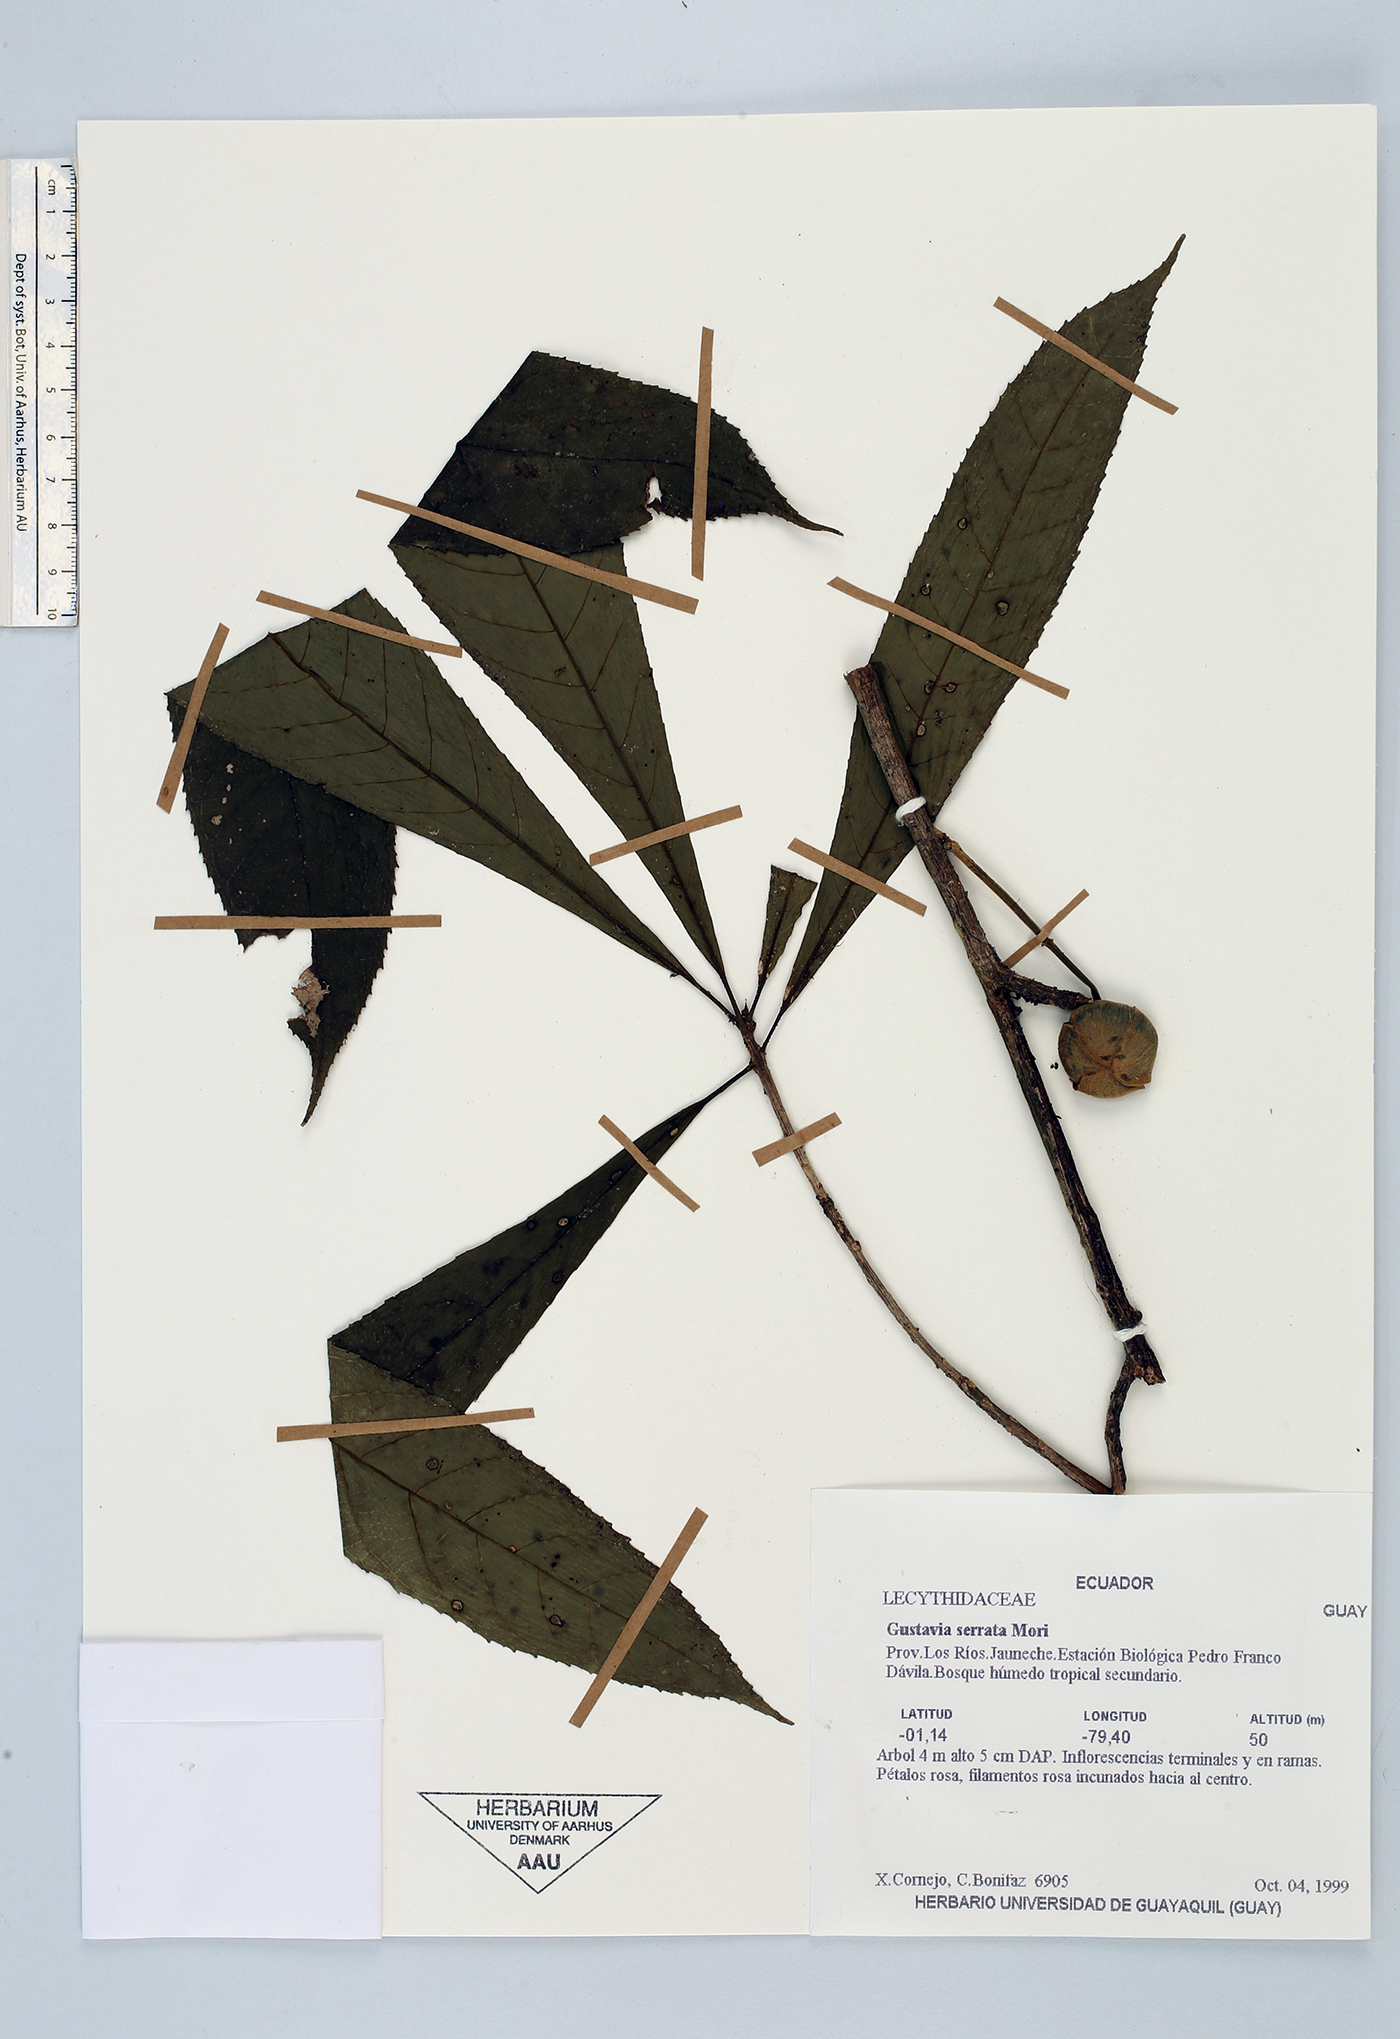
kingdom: Plantae
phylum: Tracheophyta
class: Magnoliopsida
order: Ericales
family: Lecythidaceae
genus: Gustavia
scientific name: Gustavia serrata
